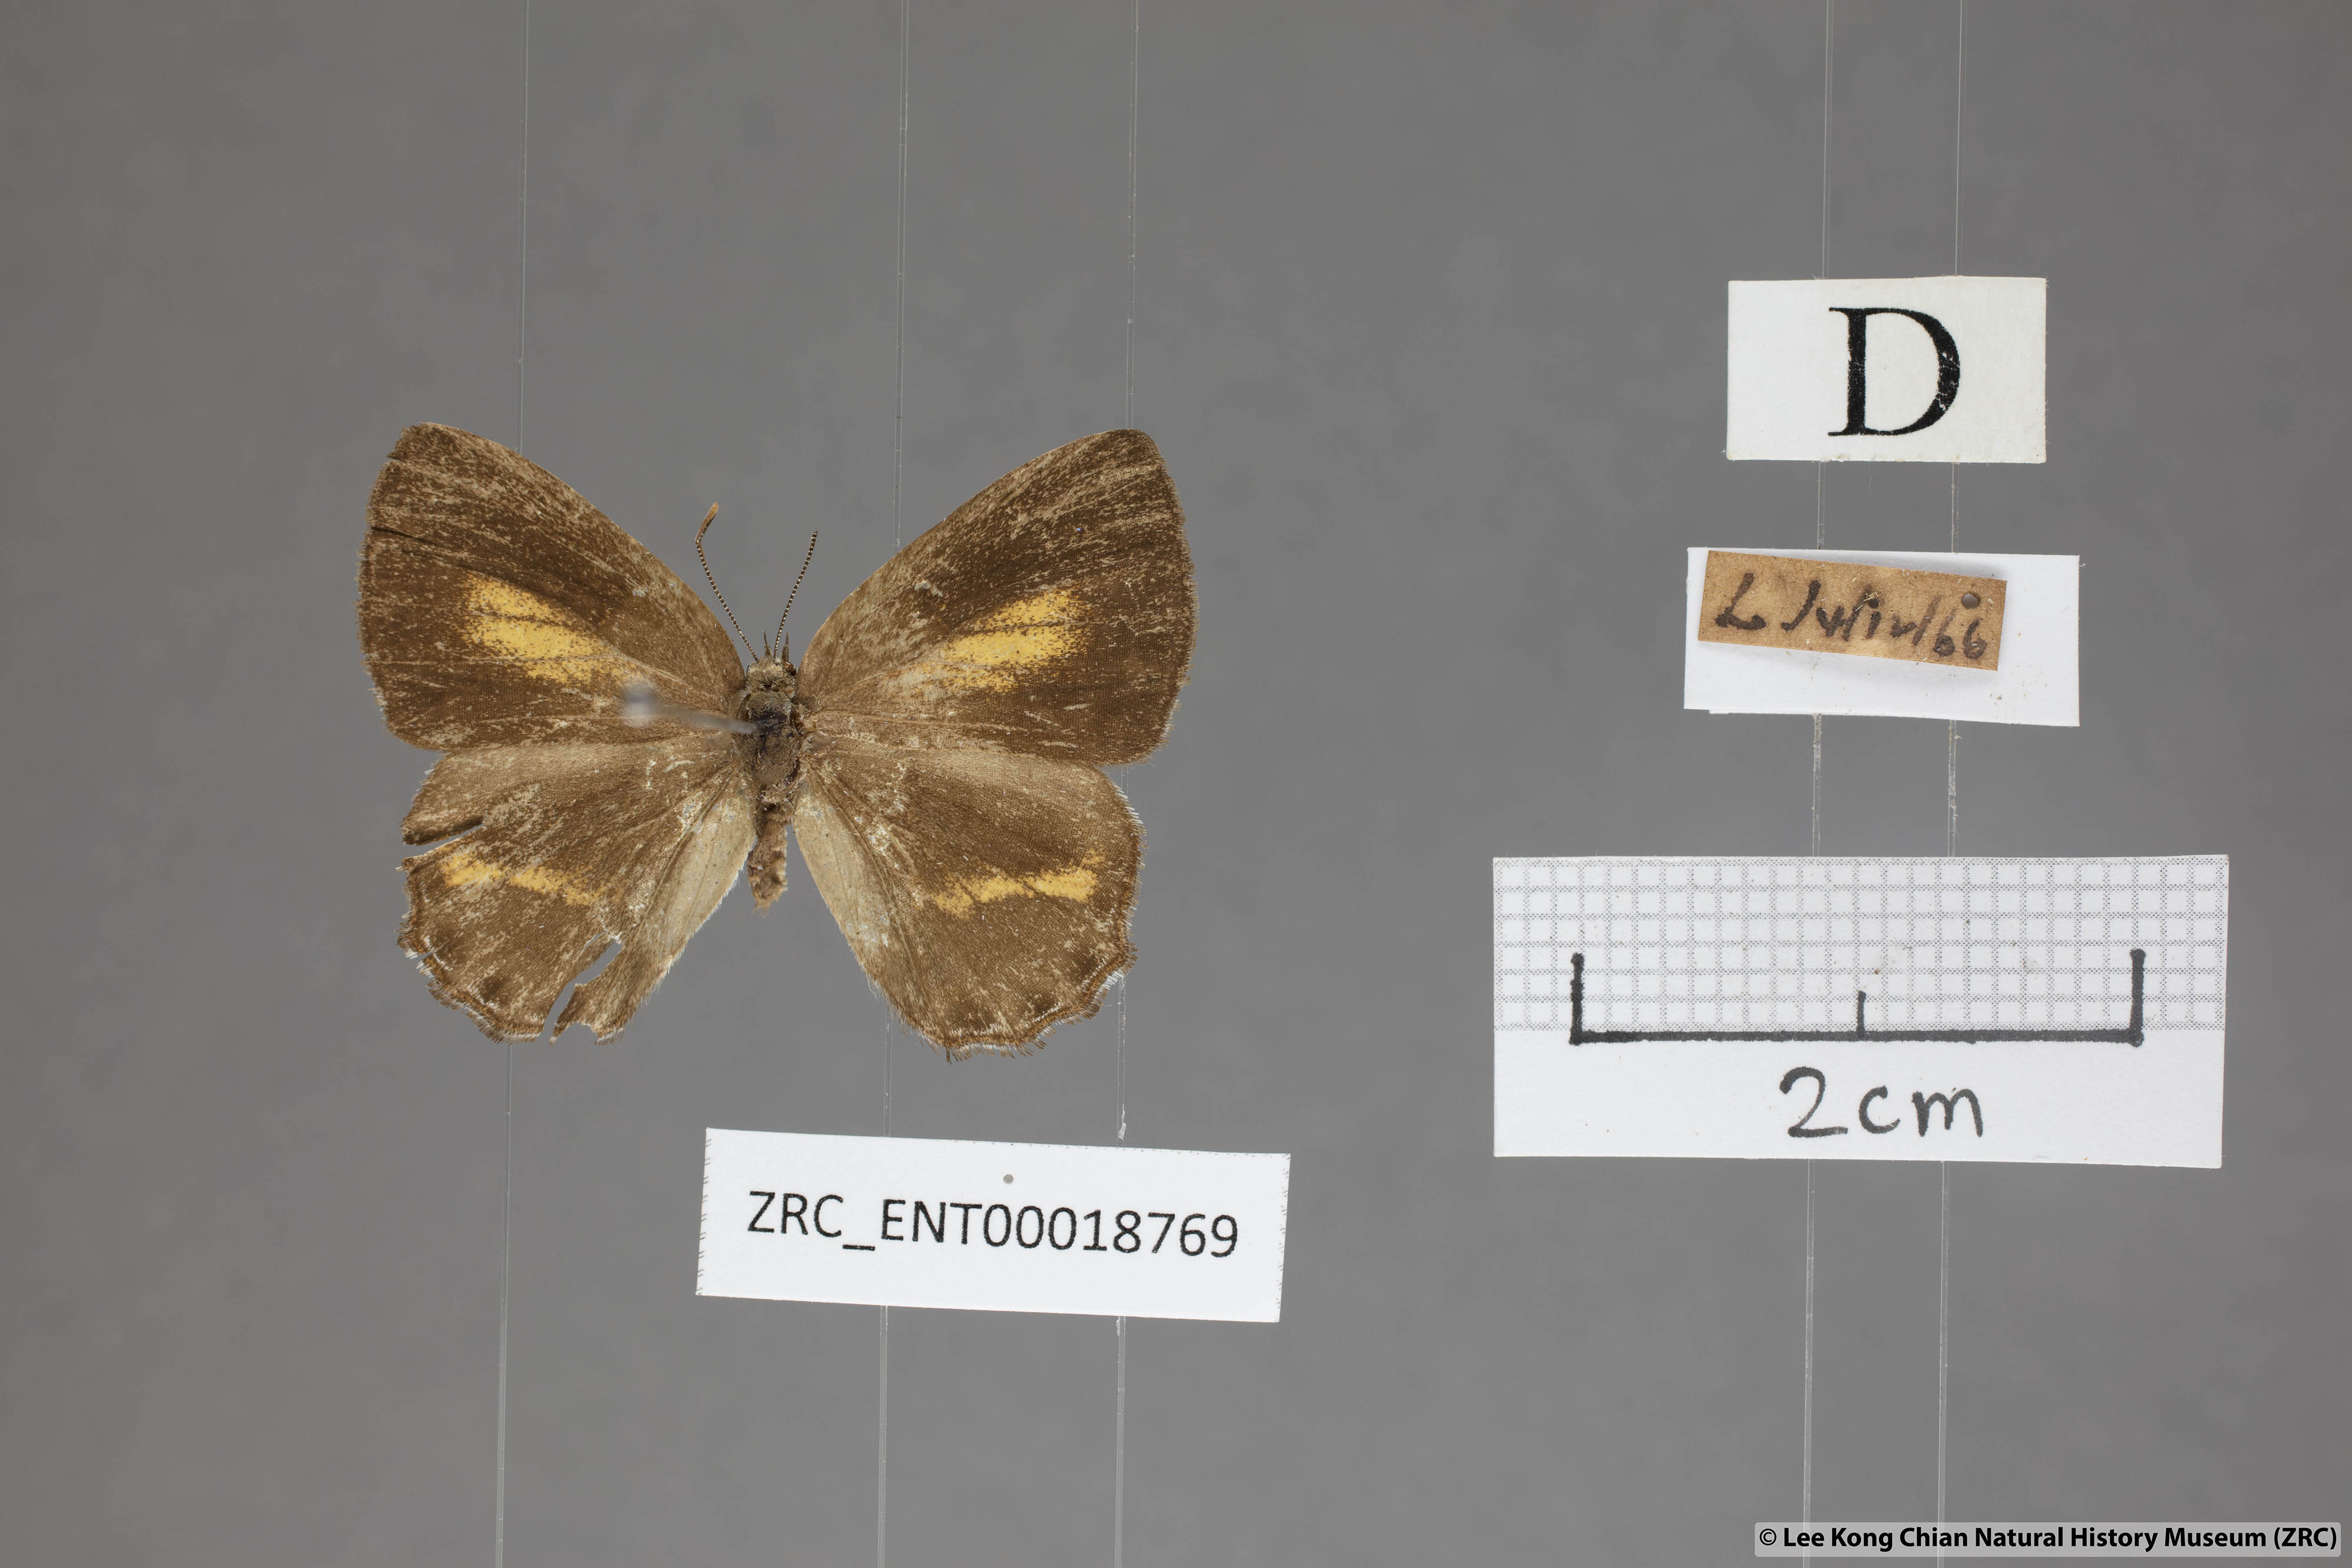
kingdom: Animalia
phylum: Arthropoda
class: Insecta
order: Lepidoptera
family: Lycaenidae
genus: Poritia
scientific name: Poritia erycinoides
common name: Blue gem
